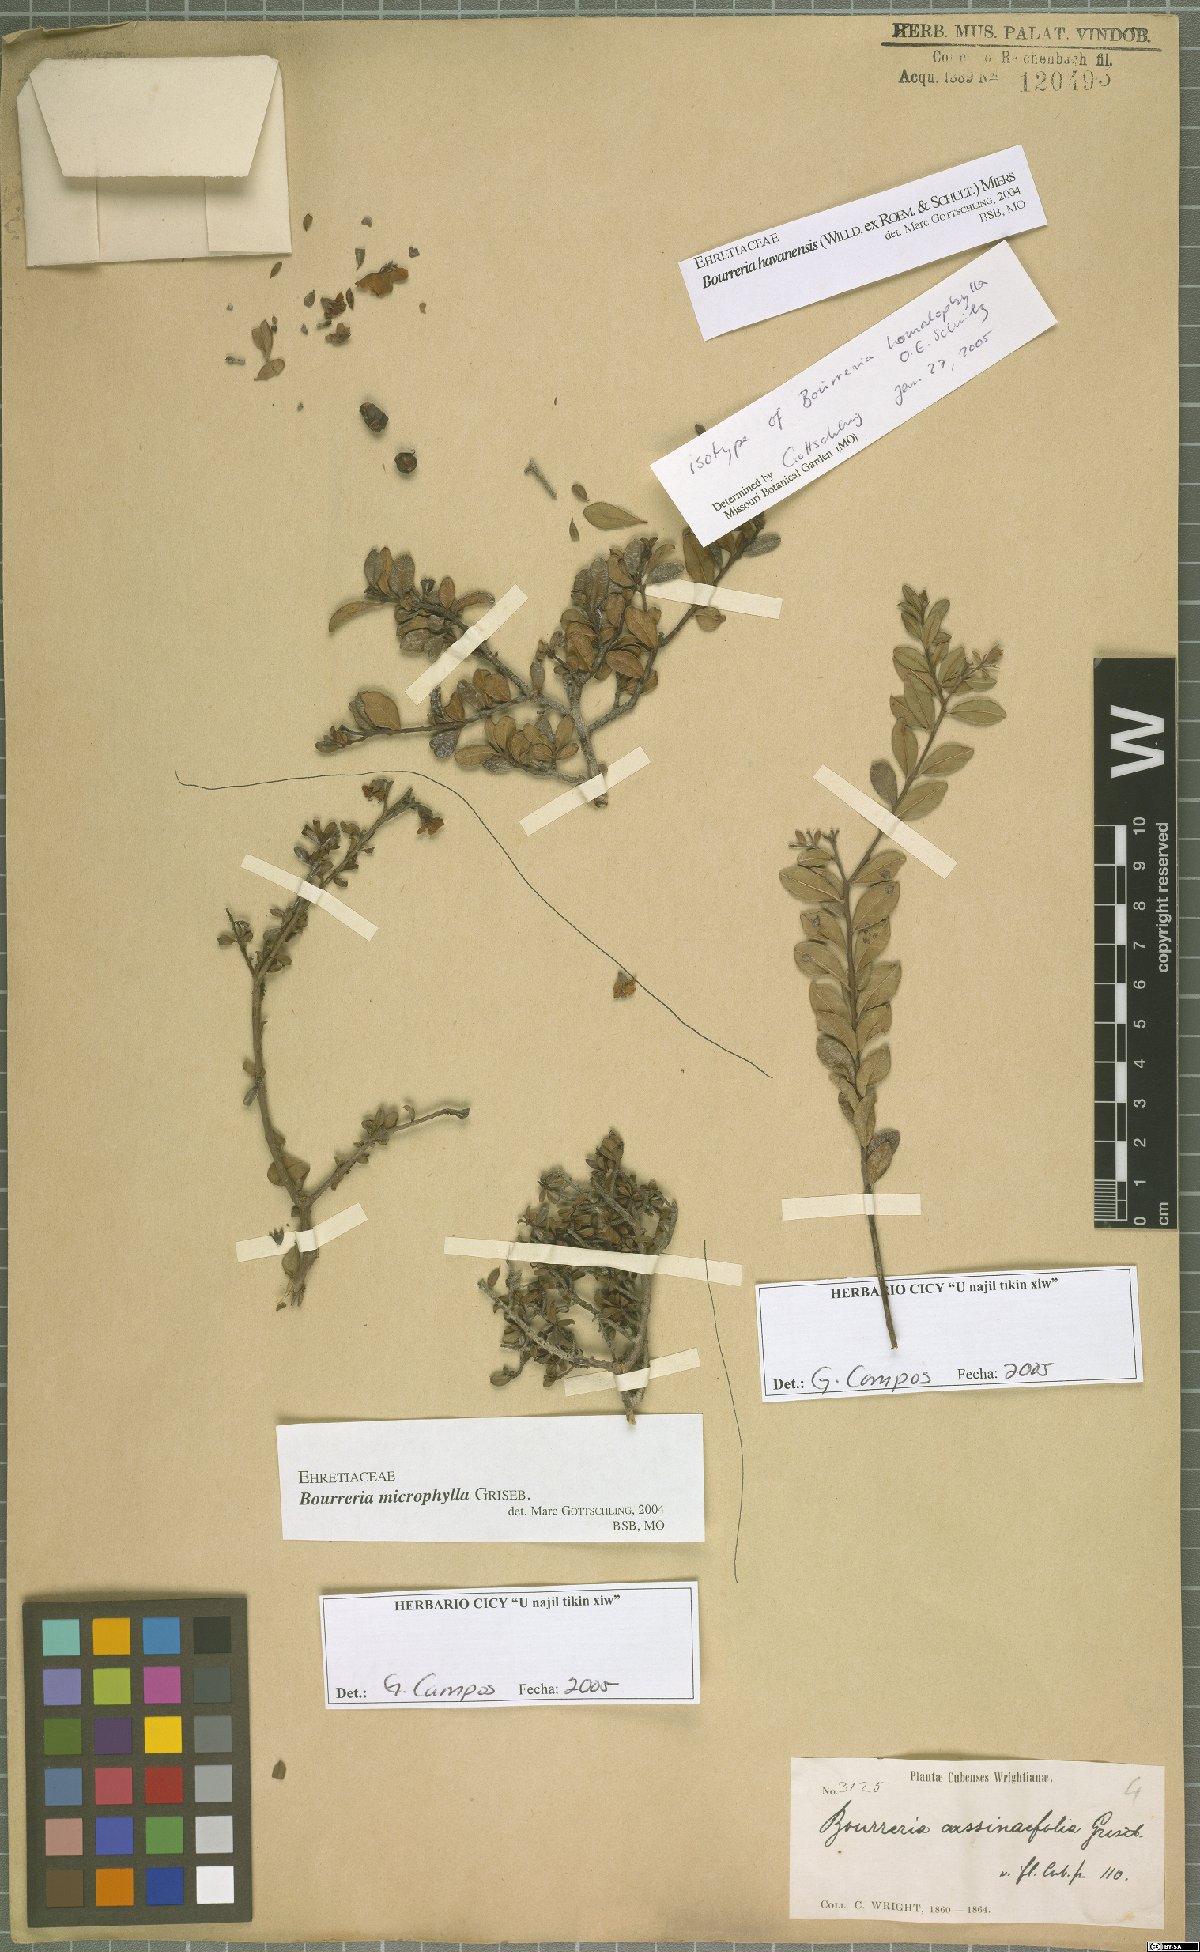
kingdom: Plantae
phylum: Tracheophyta
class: Magnoliopsida
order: Boraginales
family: Ehretiaceae
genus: Bourreria
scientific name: Bourreria havanensis
